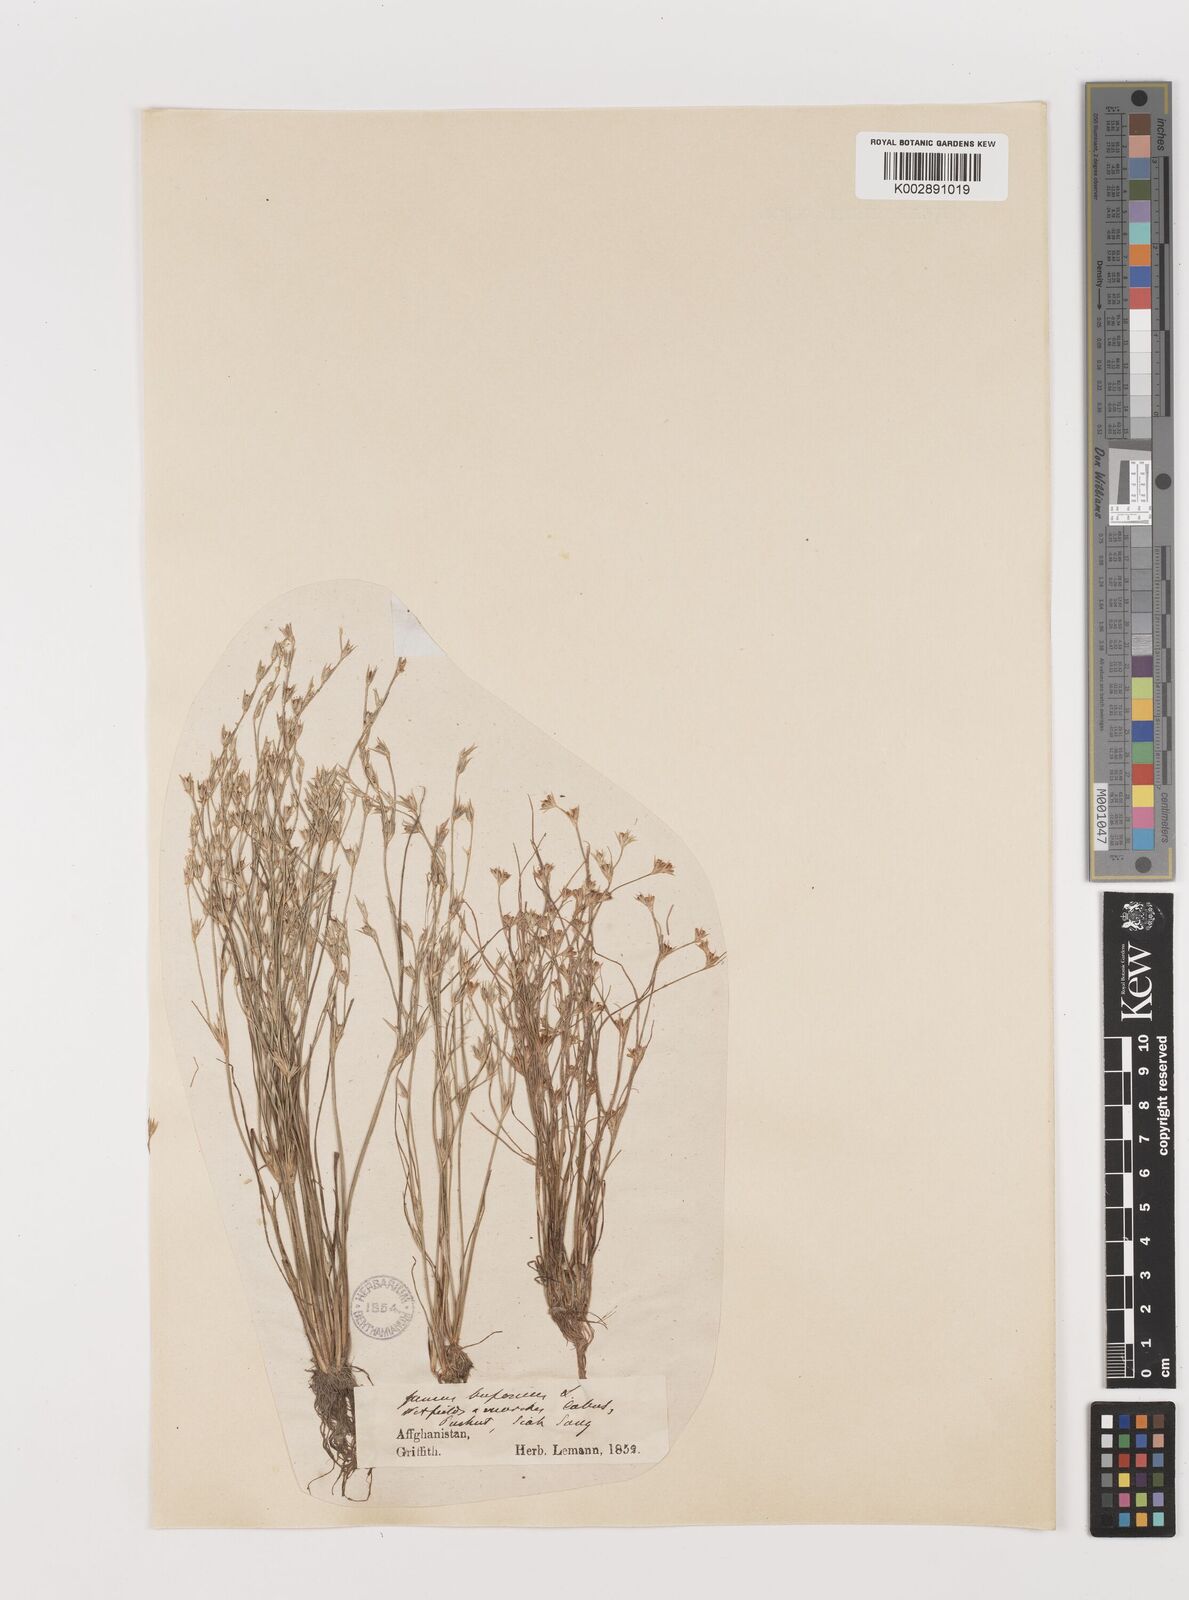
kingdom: Plantae
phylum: Tracheophyta
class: Liliopsida
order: Poales
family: Juncaceae
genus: Juncus
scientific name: Juncus bufonius
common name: Toad rush
